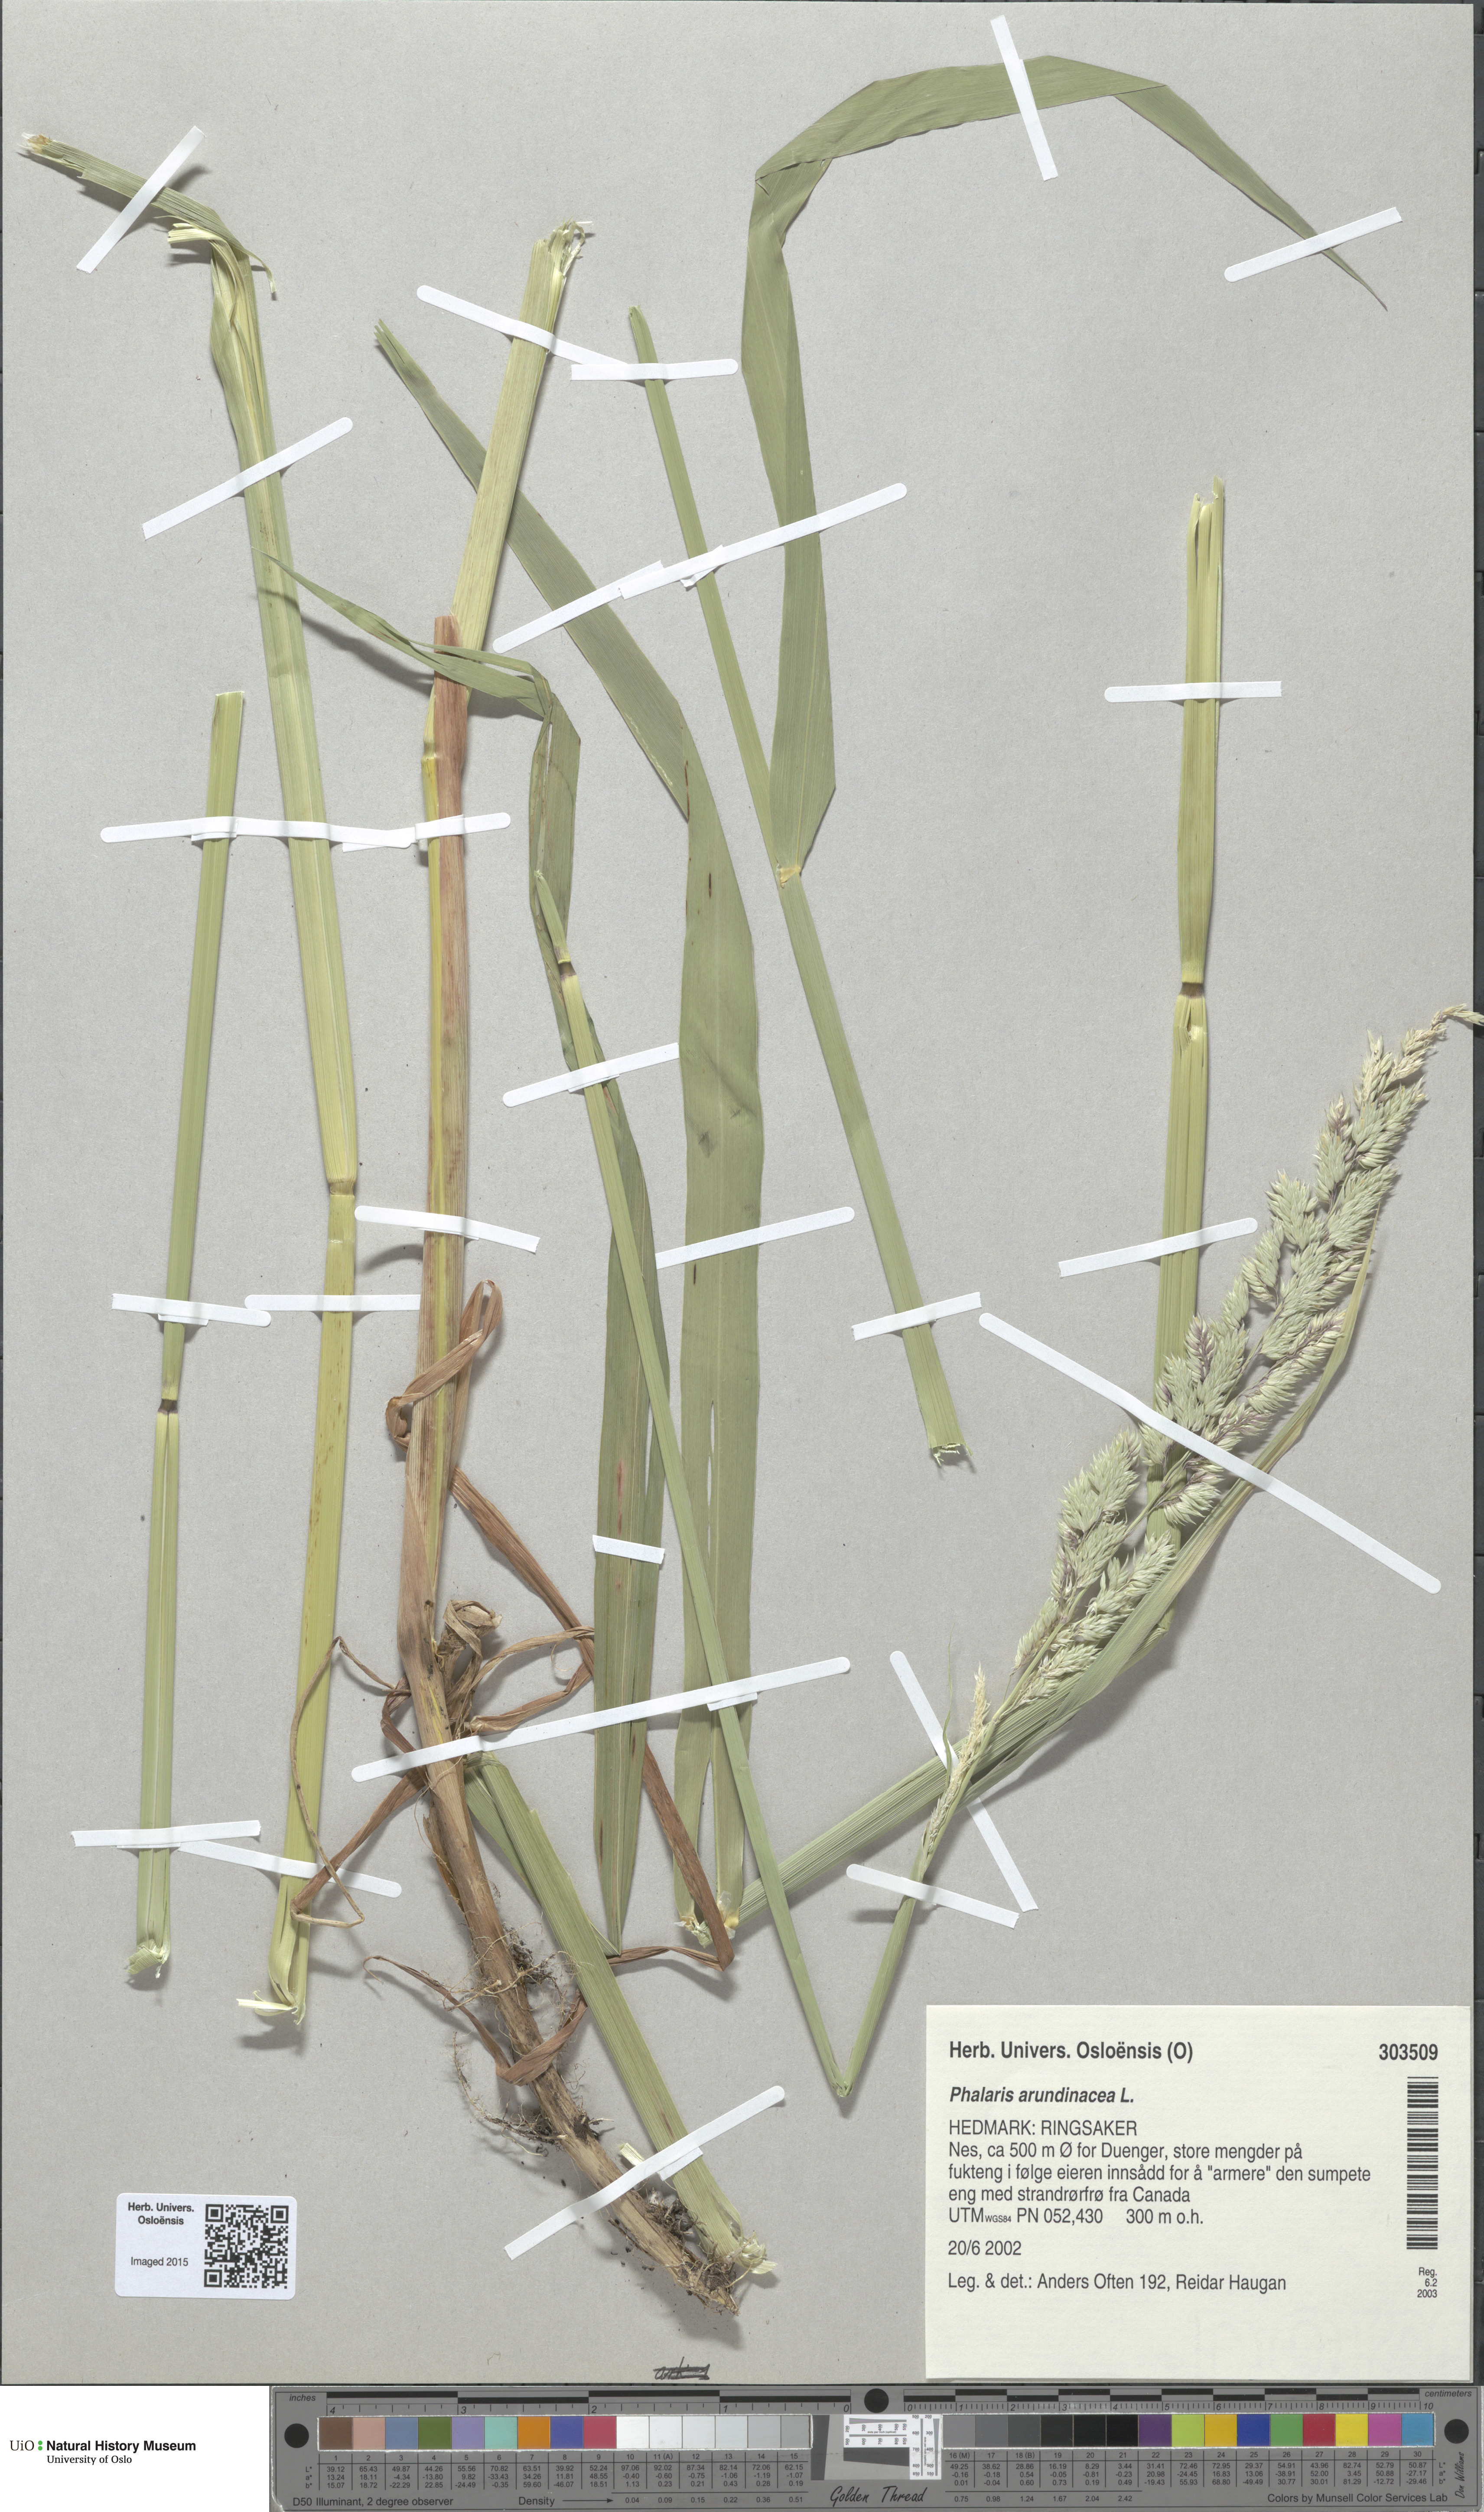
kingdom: Plantae
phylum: Tracheophyta
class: Liliopsida
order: Poales
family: Poaceae
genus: Phalaris
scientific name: Phalaris arundinacea
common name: Reed canary-grass
